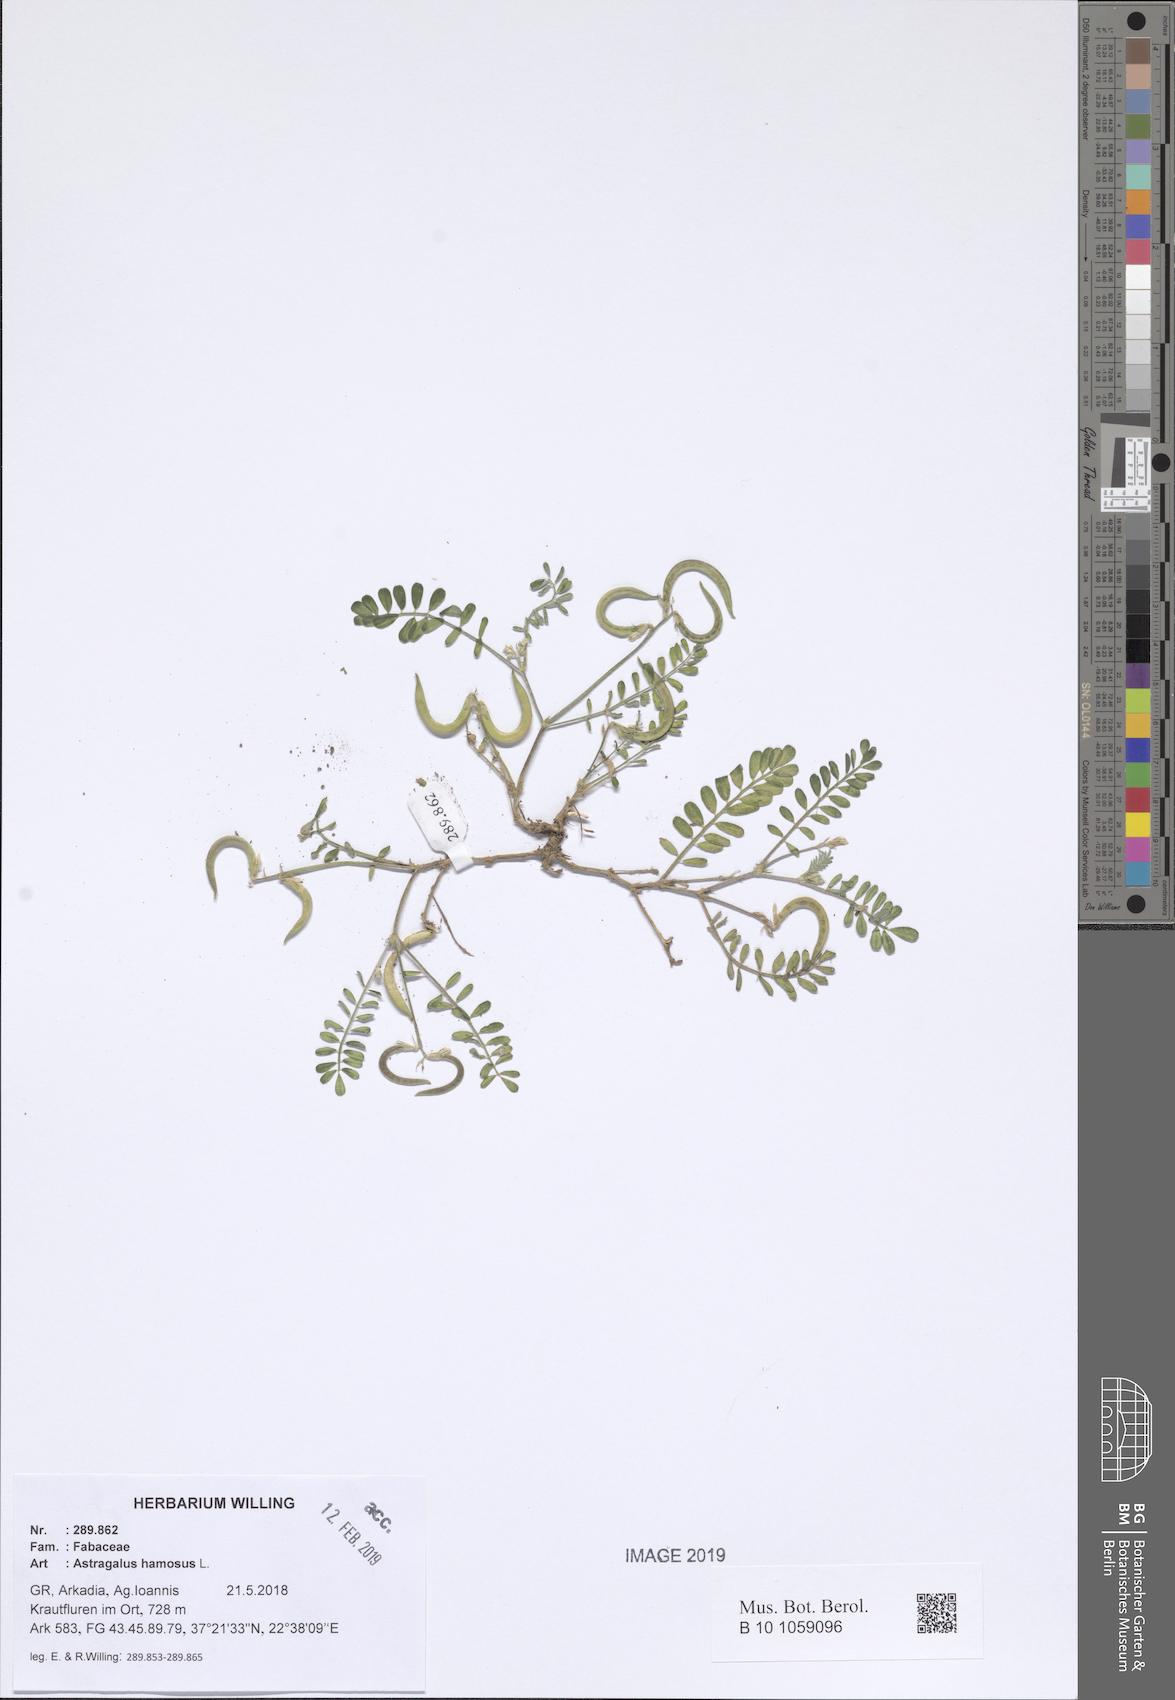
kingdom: Plantae
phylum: Tracheophyta
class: Magnoliopsida
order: Fabales
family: Fabaceae
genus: Astragalus
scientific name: Astragalus hamosus
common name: European milkvetch
